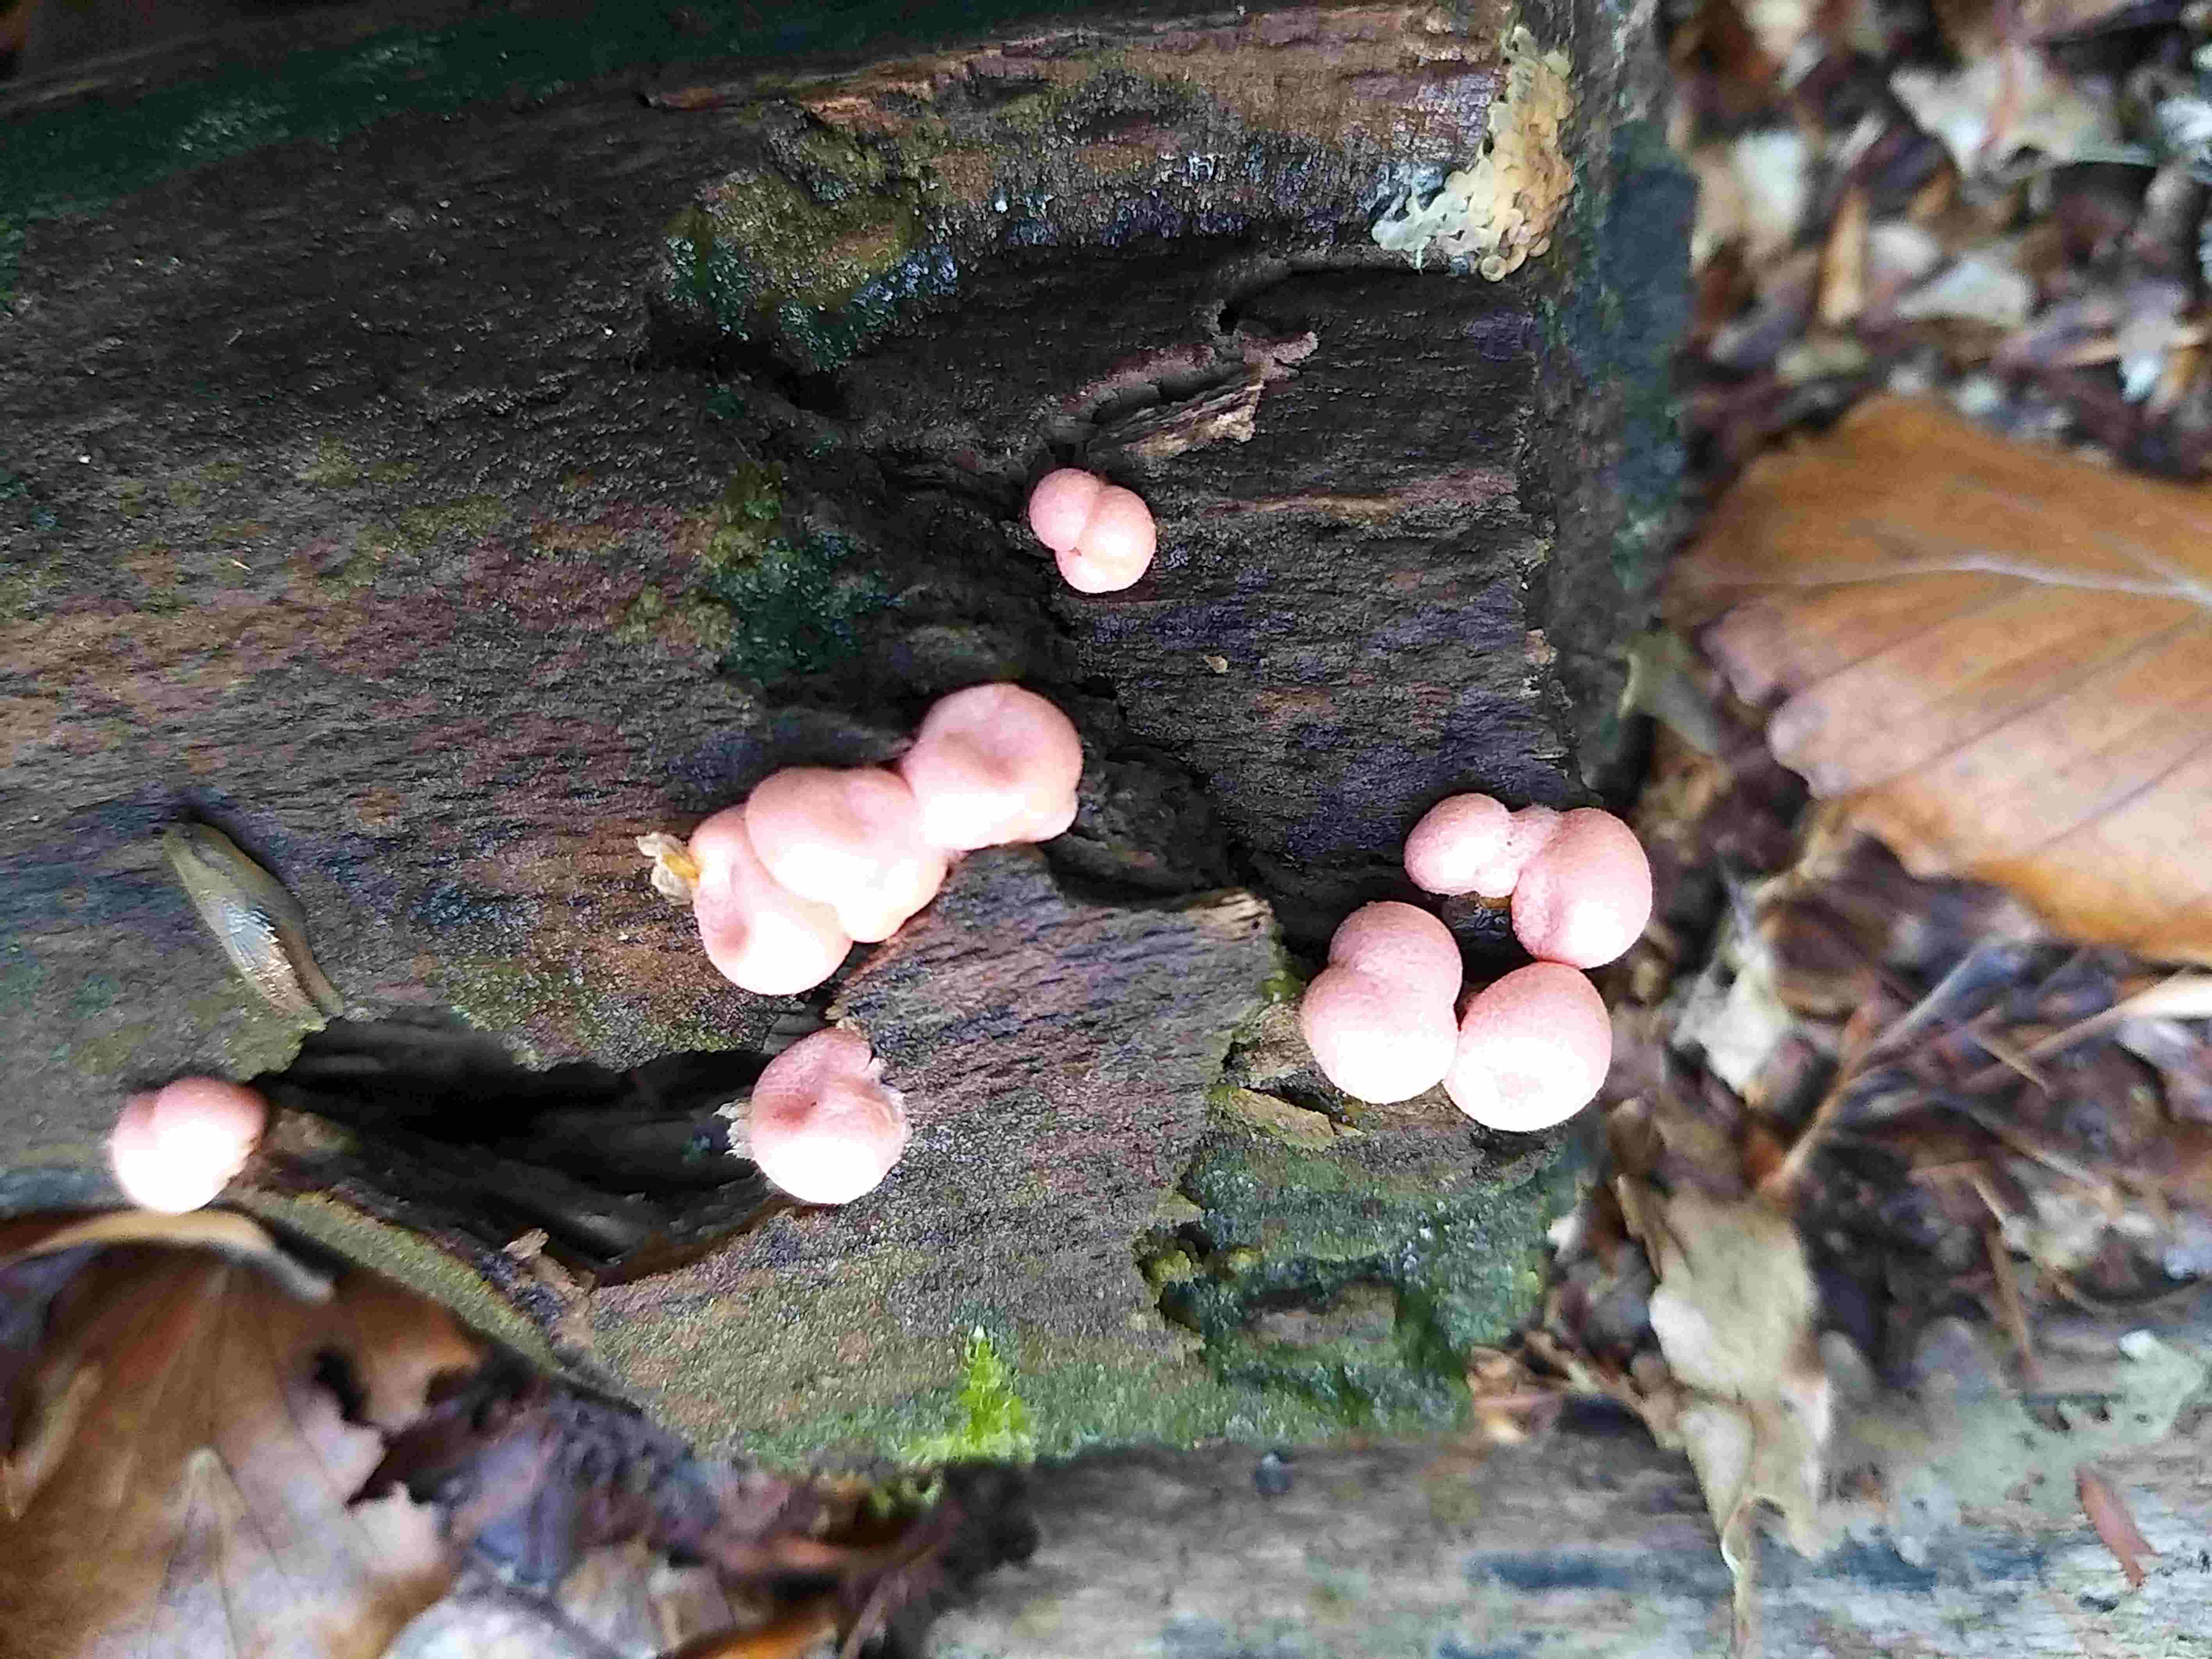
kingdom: Protozoa
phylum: Mycetozoa
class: Myxomycetes
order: Cribrariales
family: Tubiferaceae
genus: Lycogala
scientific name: Lycogala epidendrum
